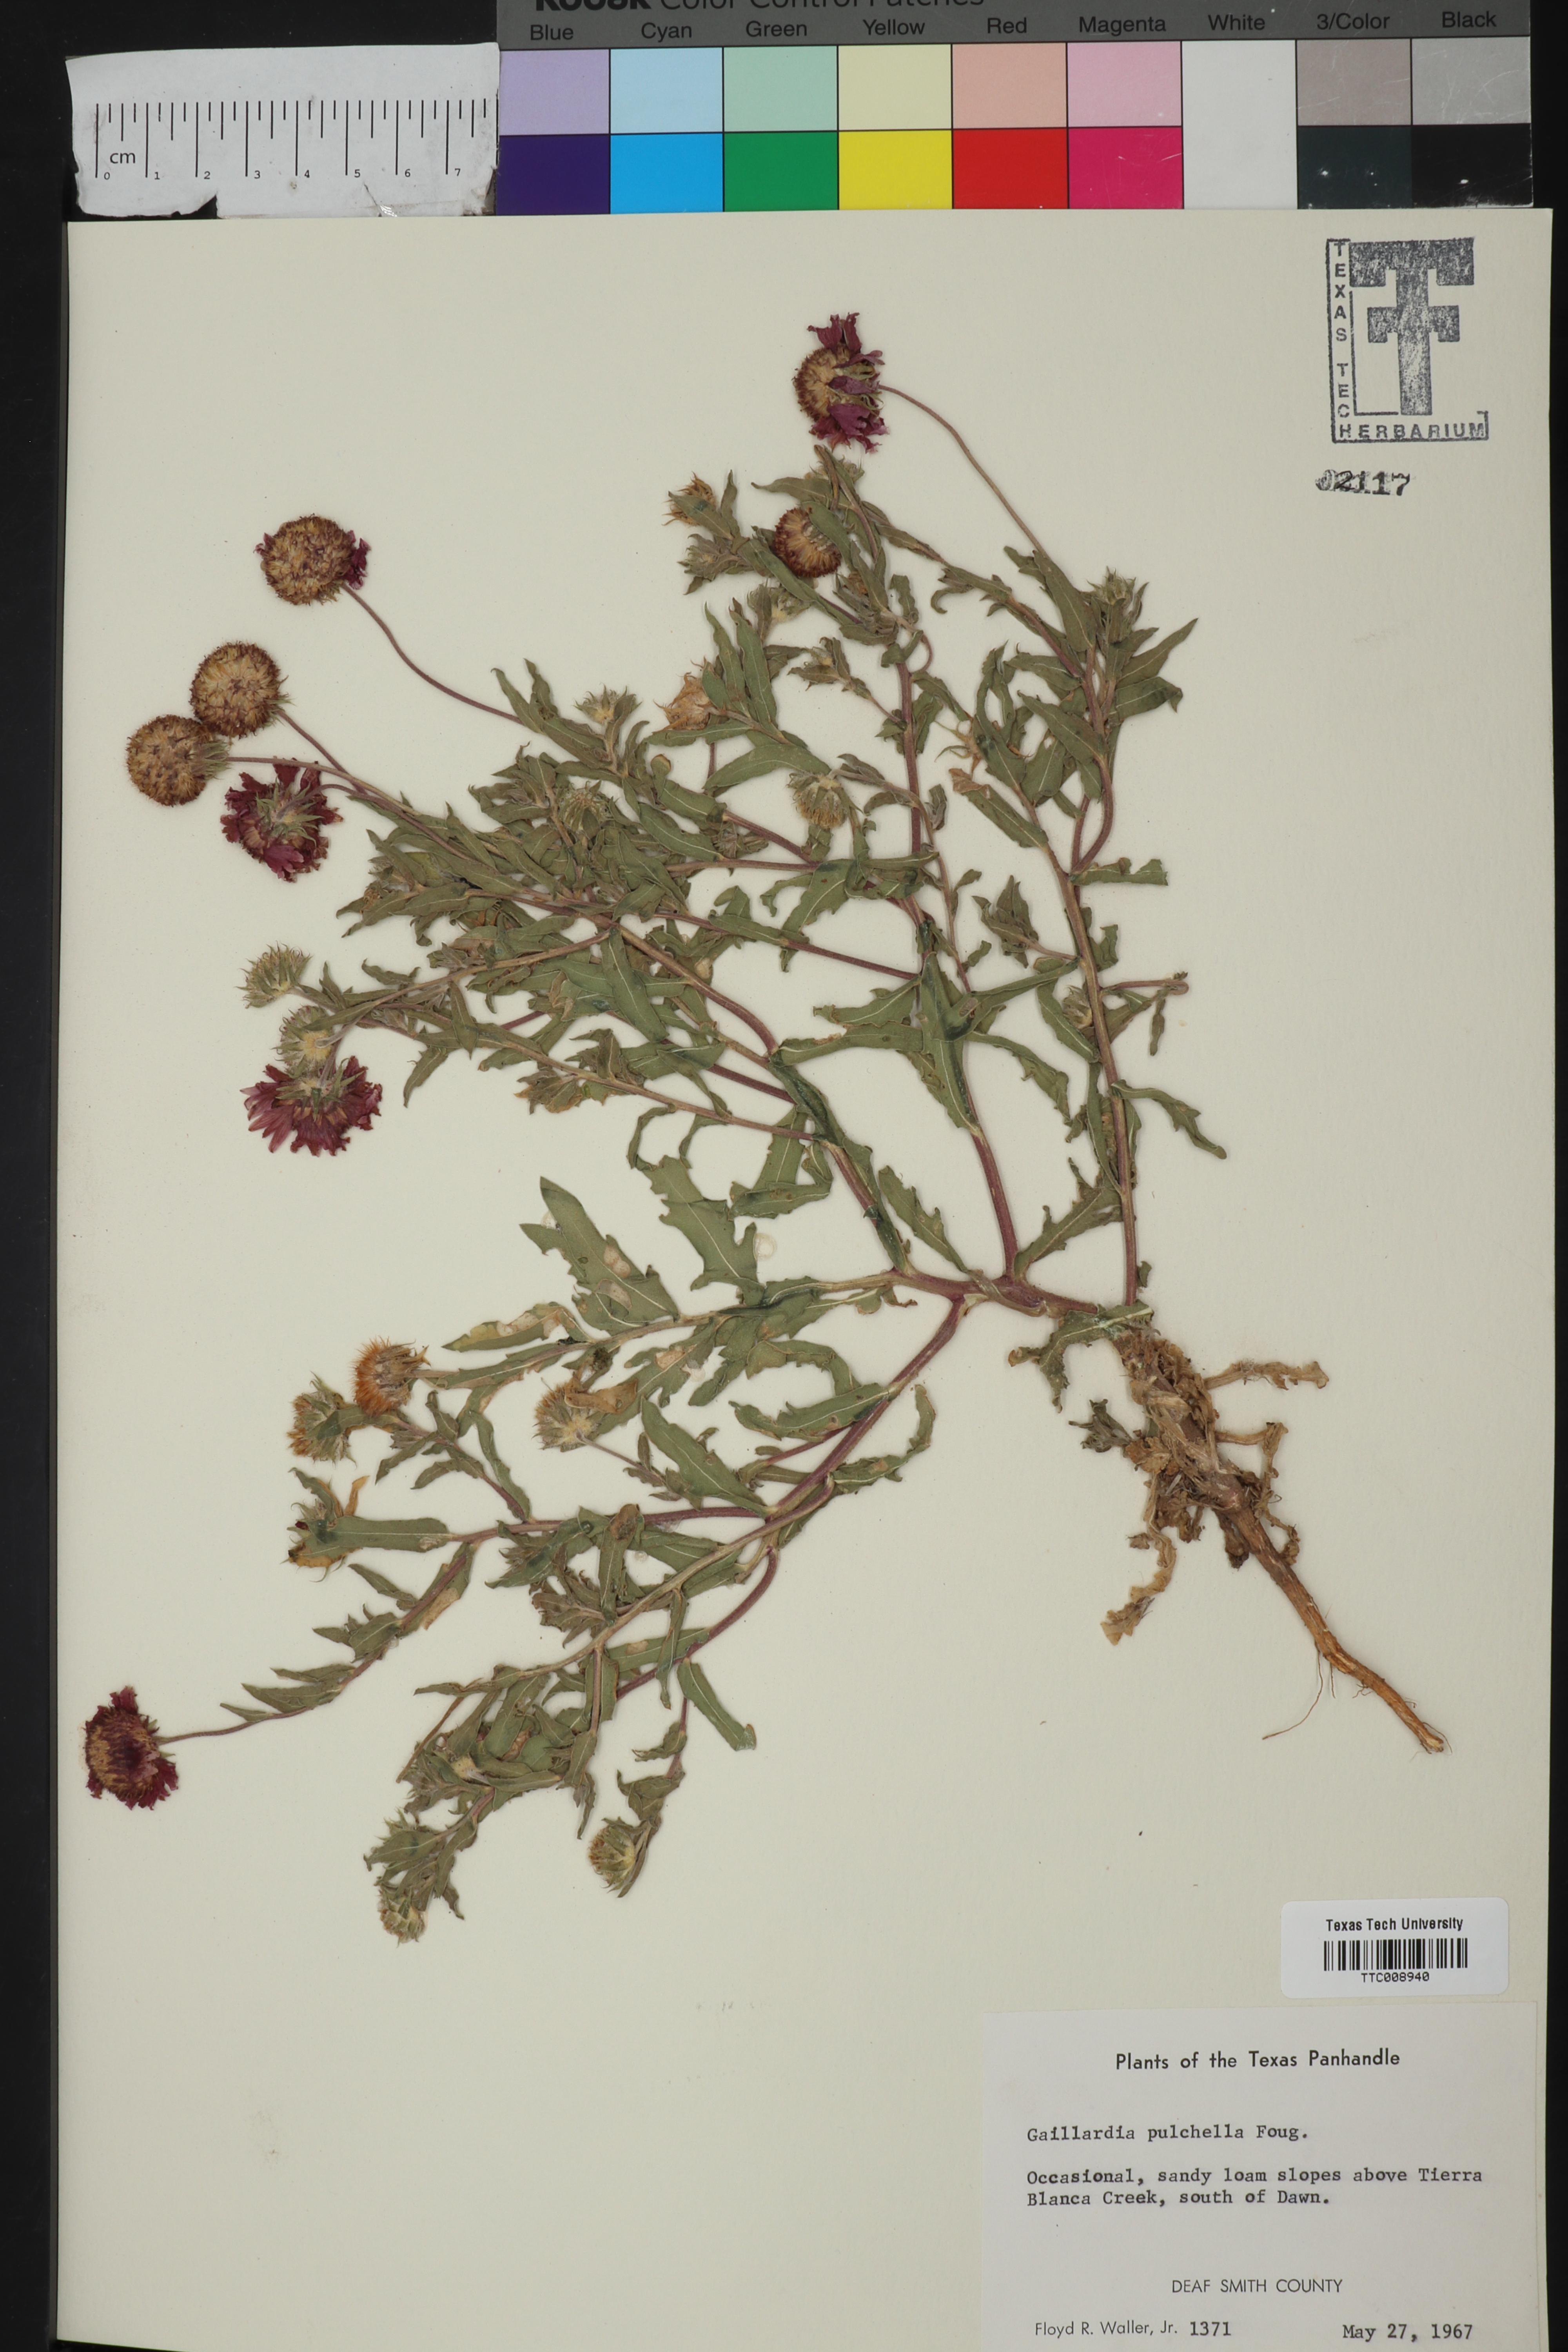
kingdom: Plantae
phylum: Tracheophyta
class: Magnoliopsida
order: Asterales
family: Asteraceae
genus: Gaillardia
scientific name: Gaillardia pulchella
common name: Firewheel
